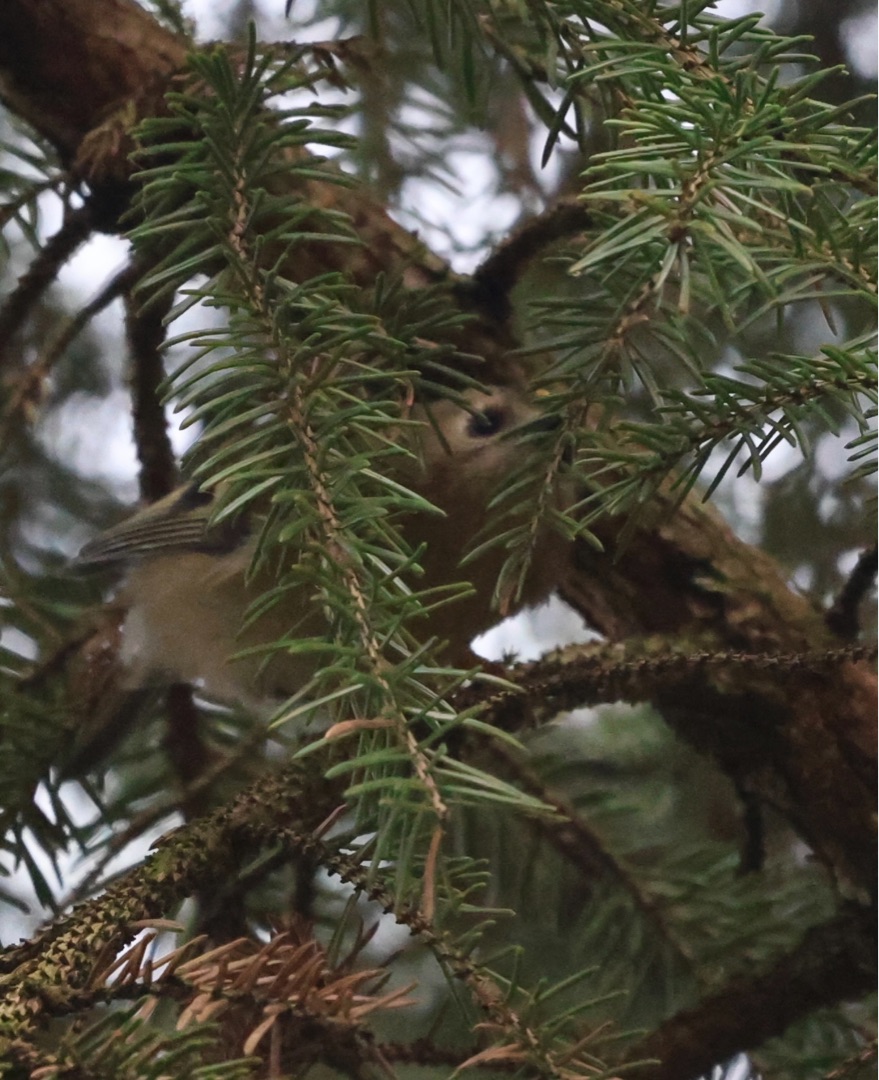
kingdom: Animalia
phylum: Chordata
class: Aves
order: Passeriformes
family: Regulidae
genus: Regulus
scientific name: Regulus regulus
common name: Fuglekonge
